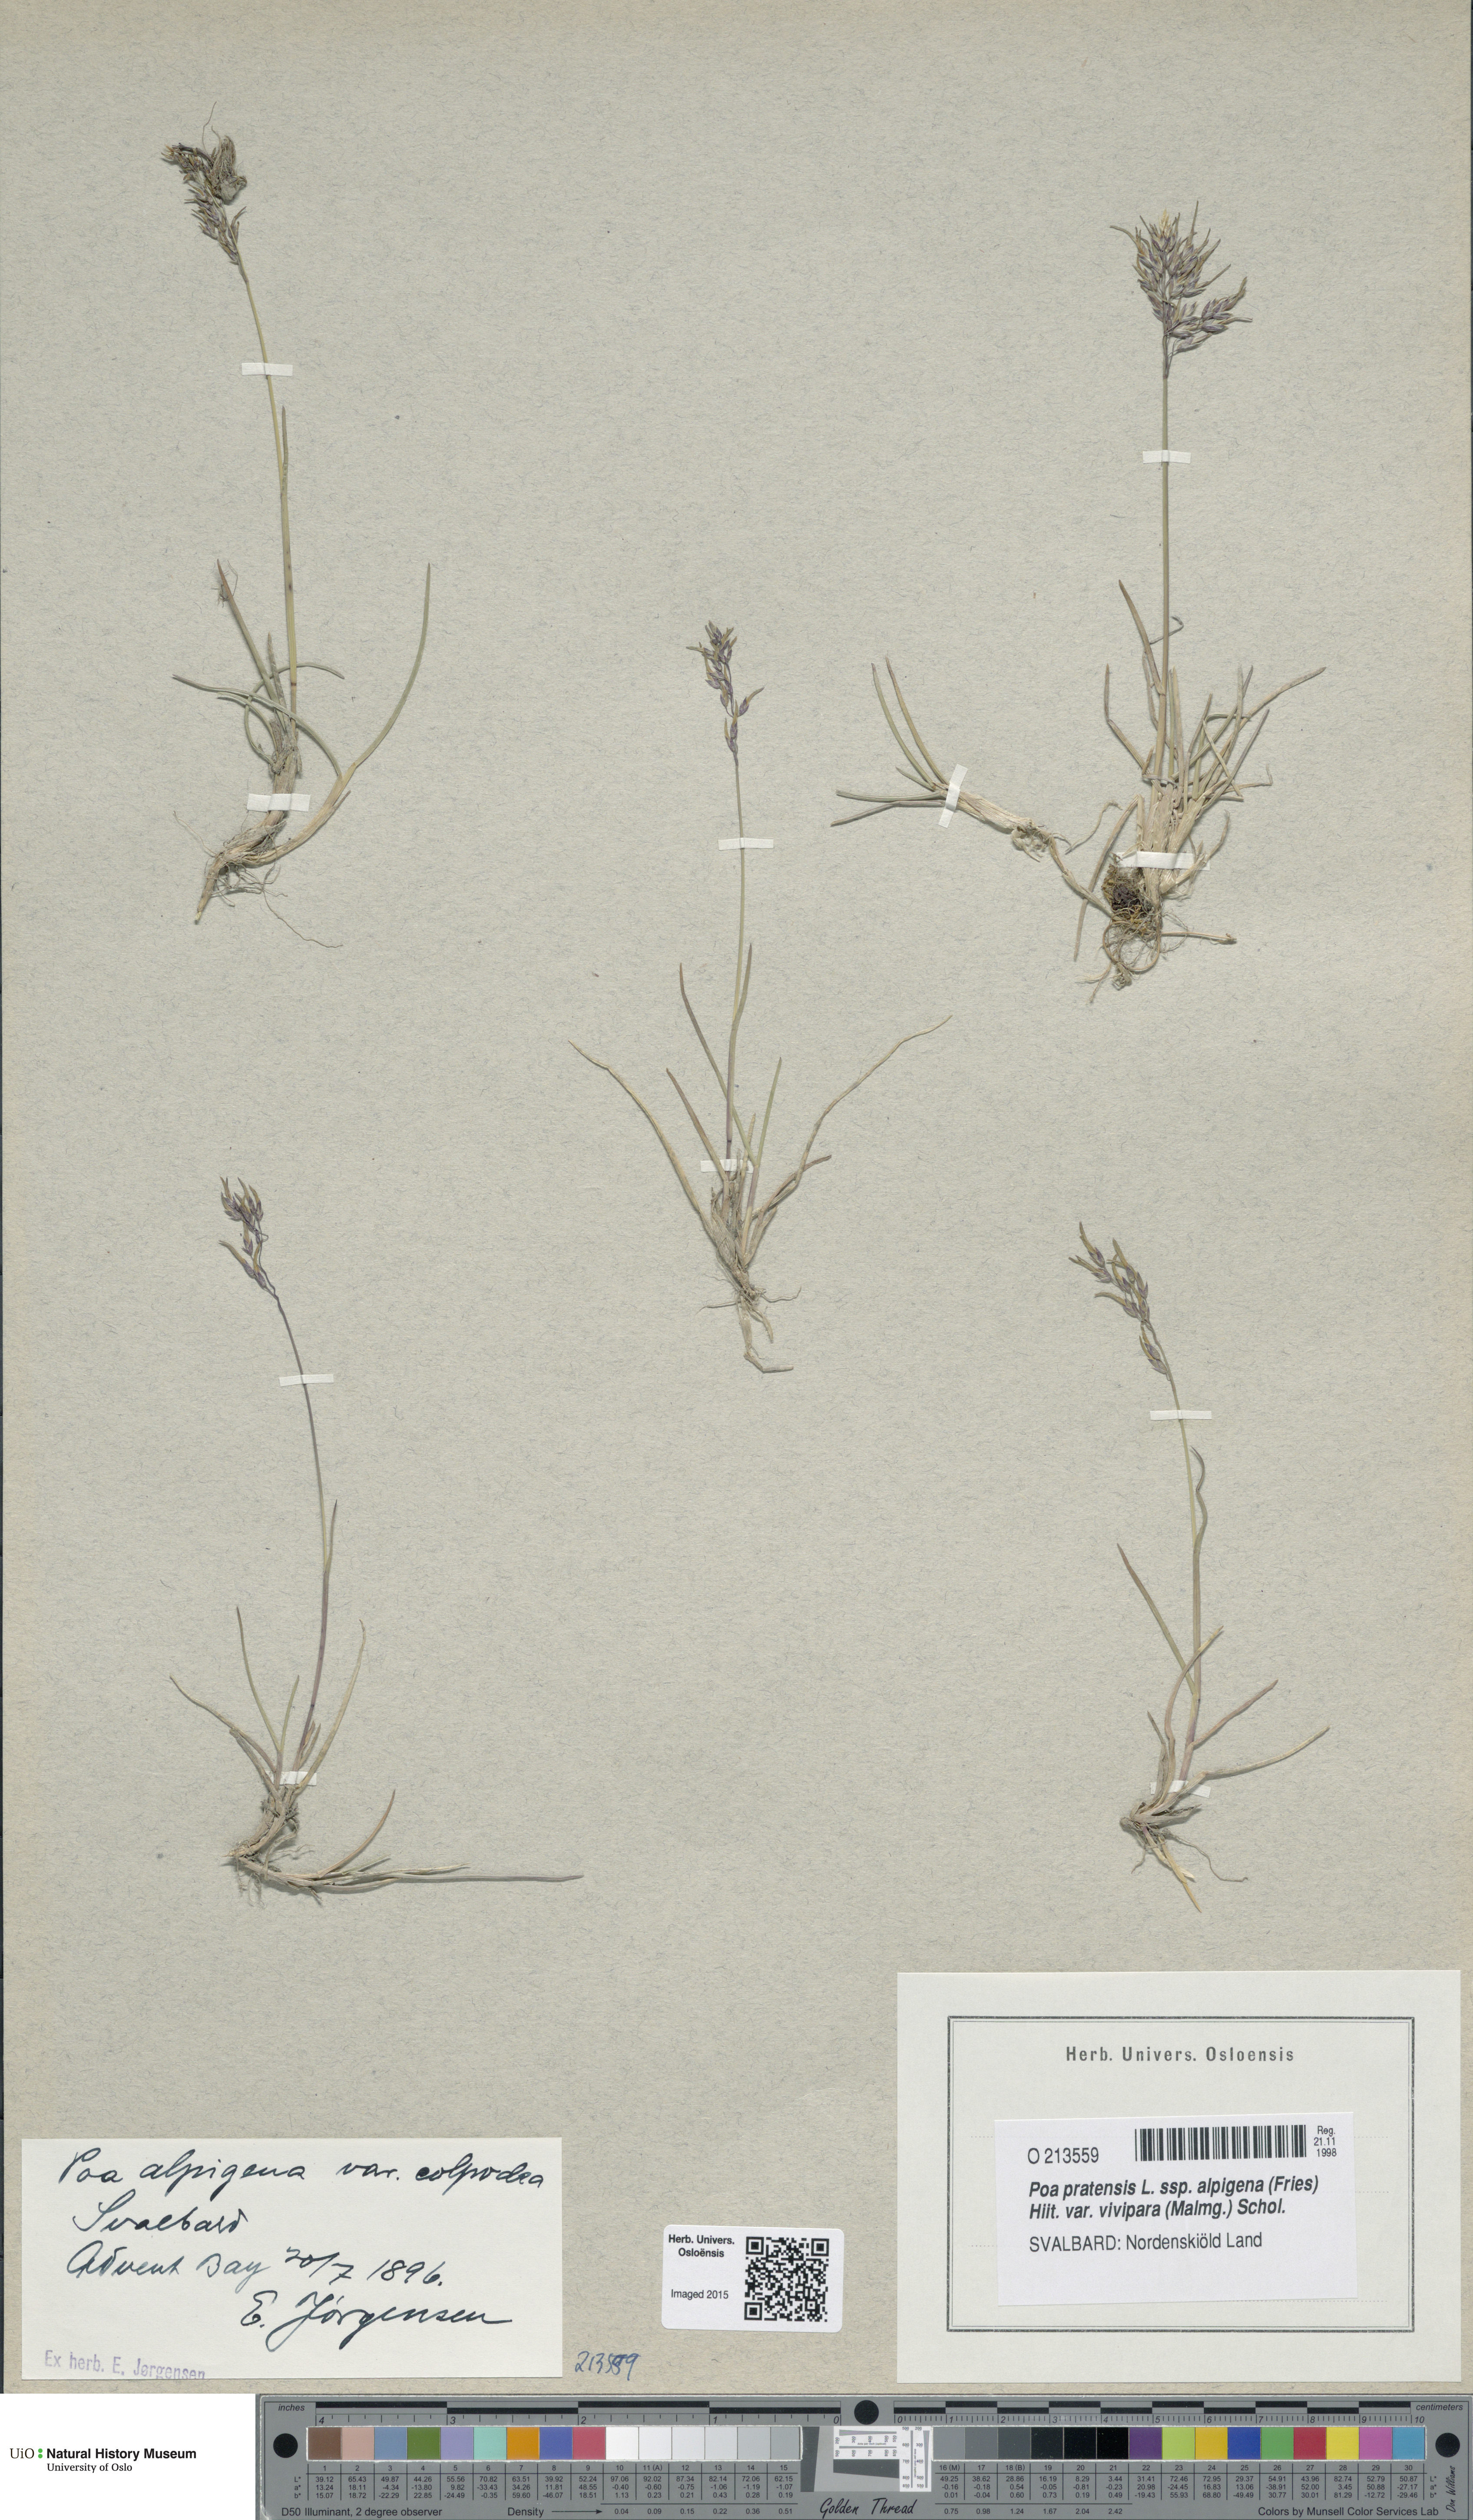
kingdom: Plantae
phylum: Tracheophyta
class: Liliopsida
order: Poales
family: Poaceae
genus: Poa
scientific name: Poa colpodea
